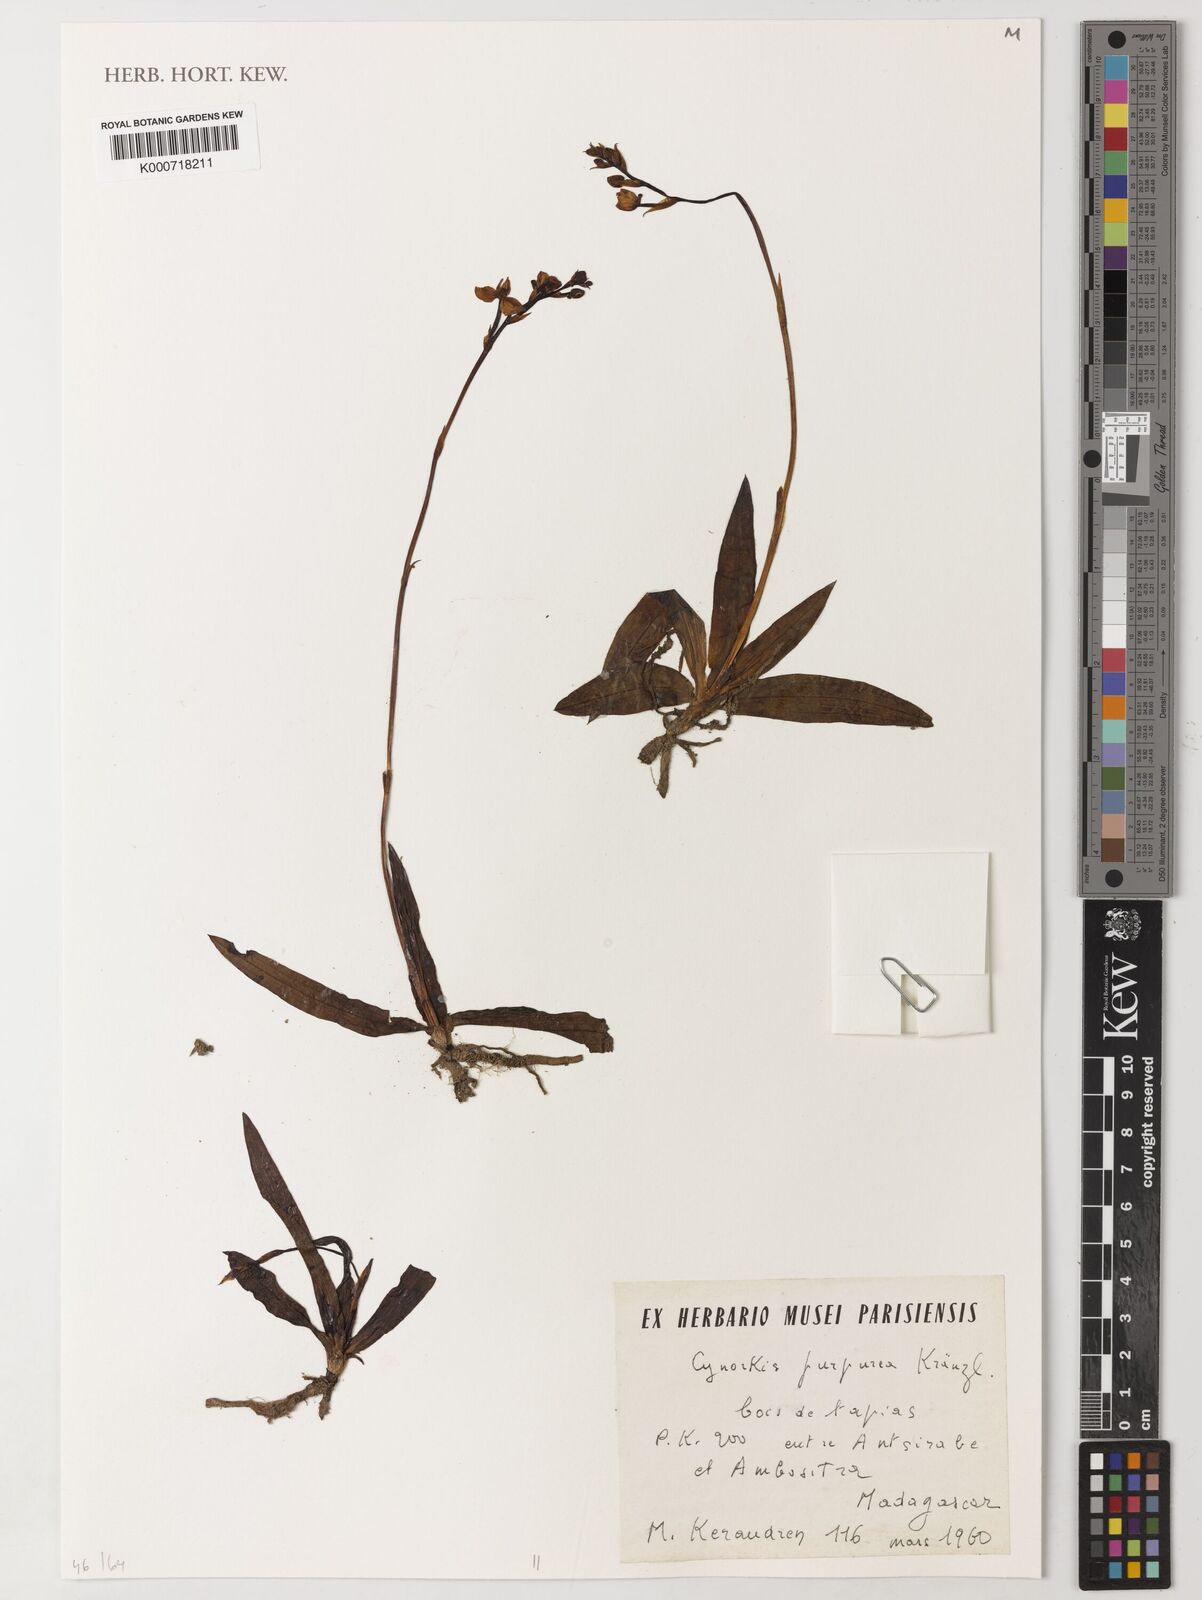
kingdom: Plantae
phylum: Tracheophyta
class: Liliopsida
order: Asparagales
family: Orchidaceae
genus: Cynorkis
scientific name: Cynorkis purpurea
